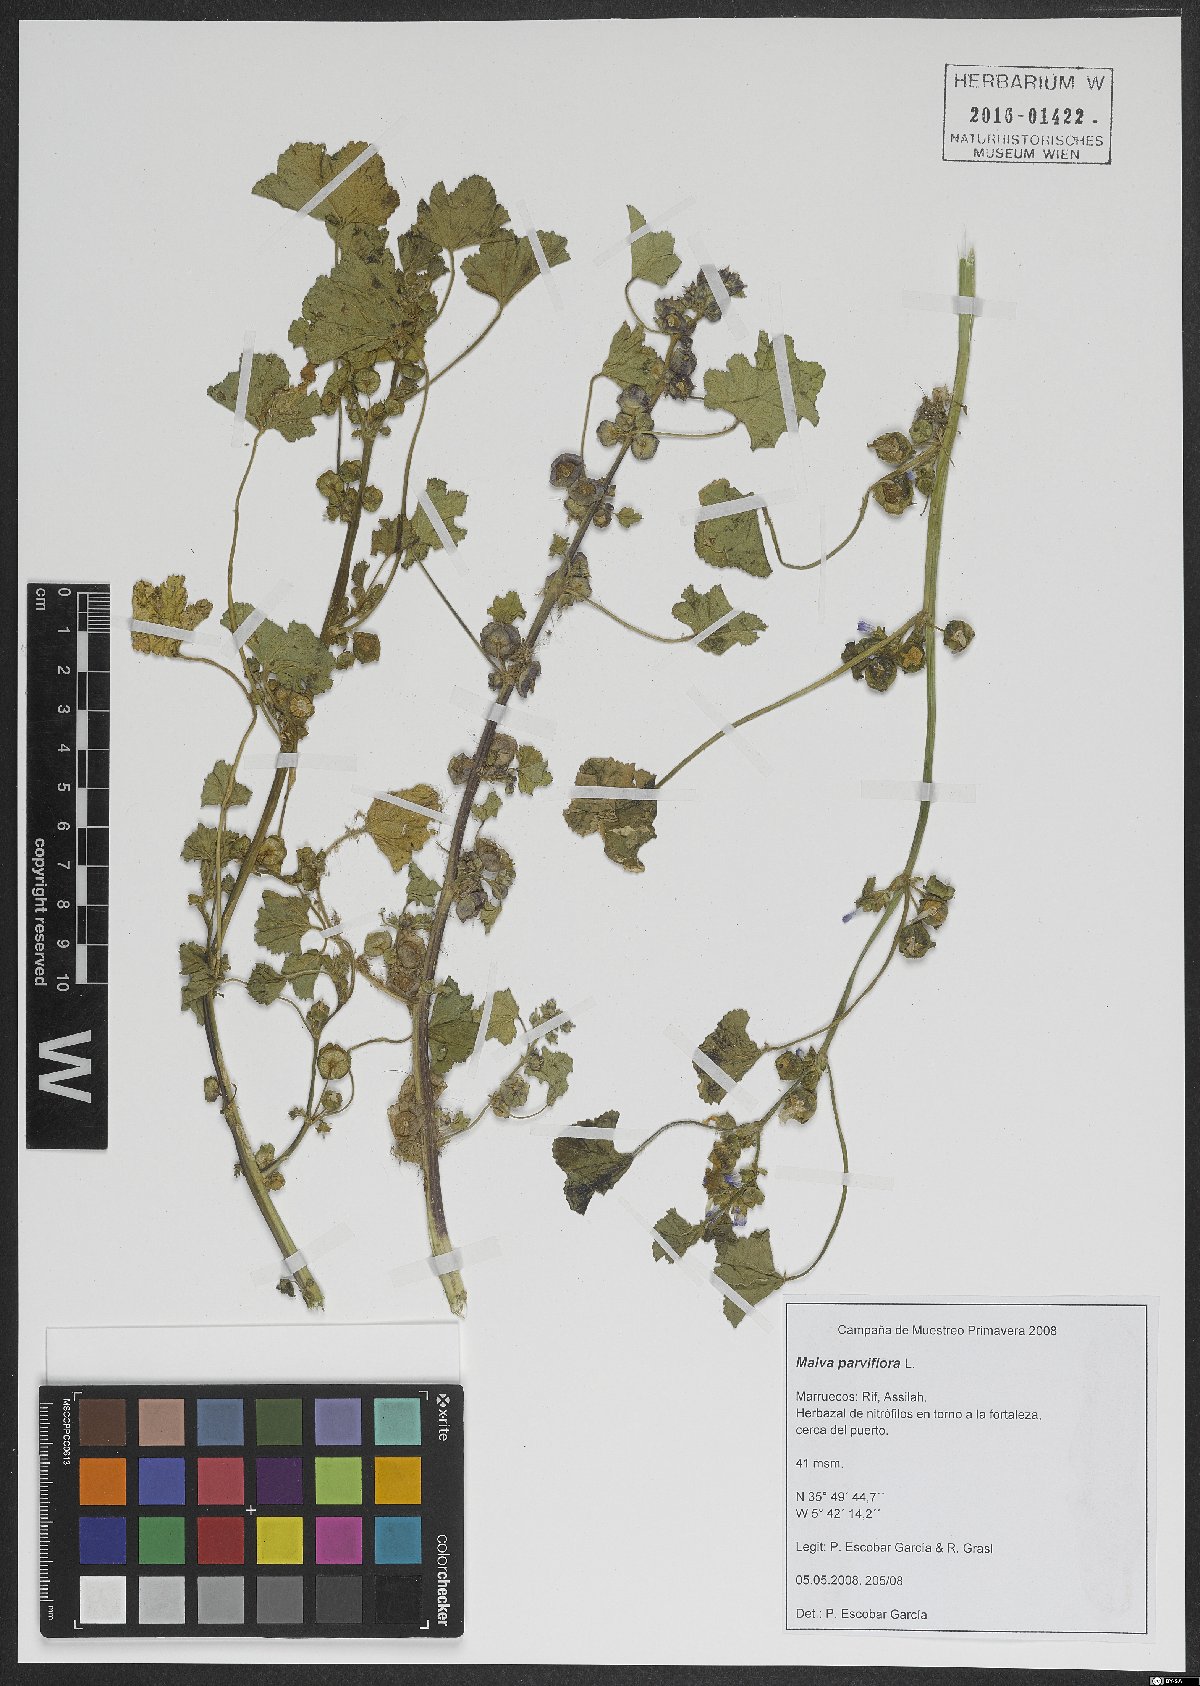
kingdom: Plantae
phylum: Tracheophyta
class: Magnoliopsida
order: Malvales
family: Malvaceae
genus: Malva
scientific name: Malva parviflora
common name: Least mallow
